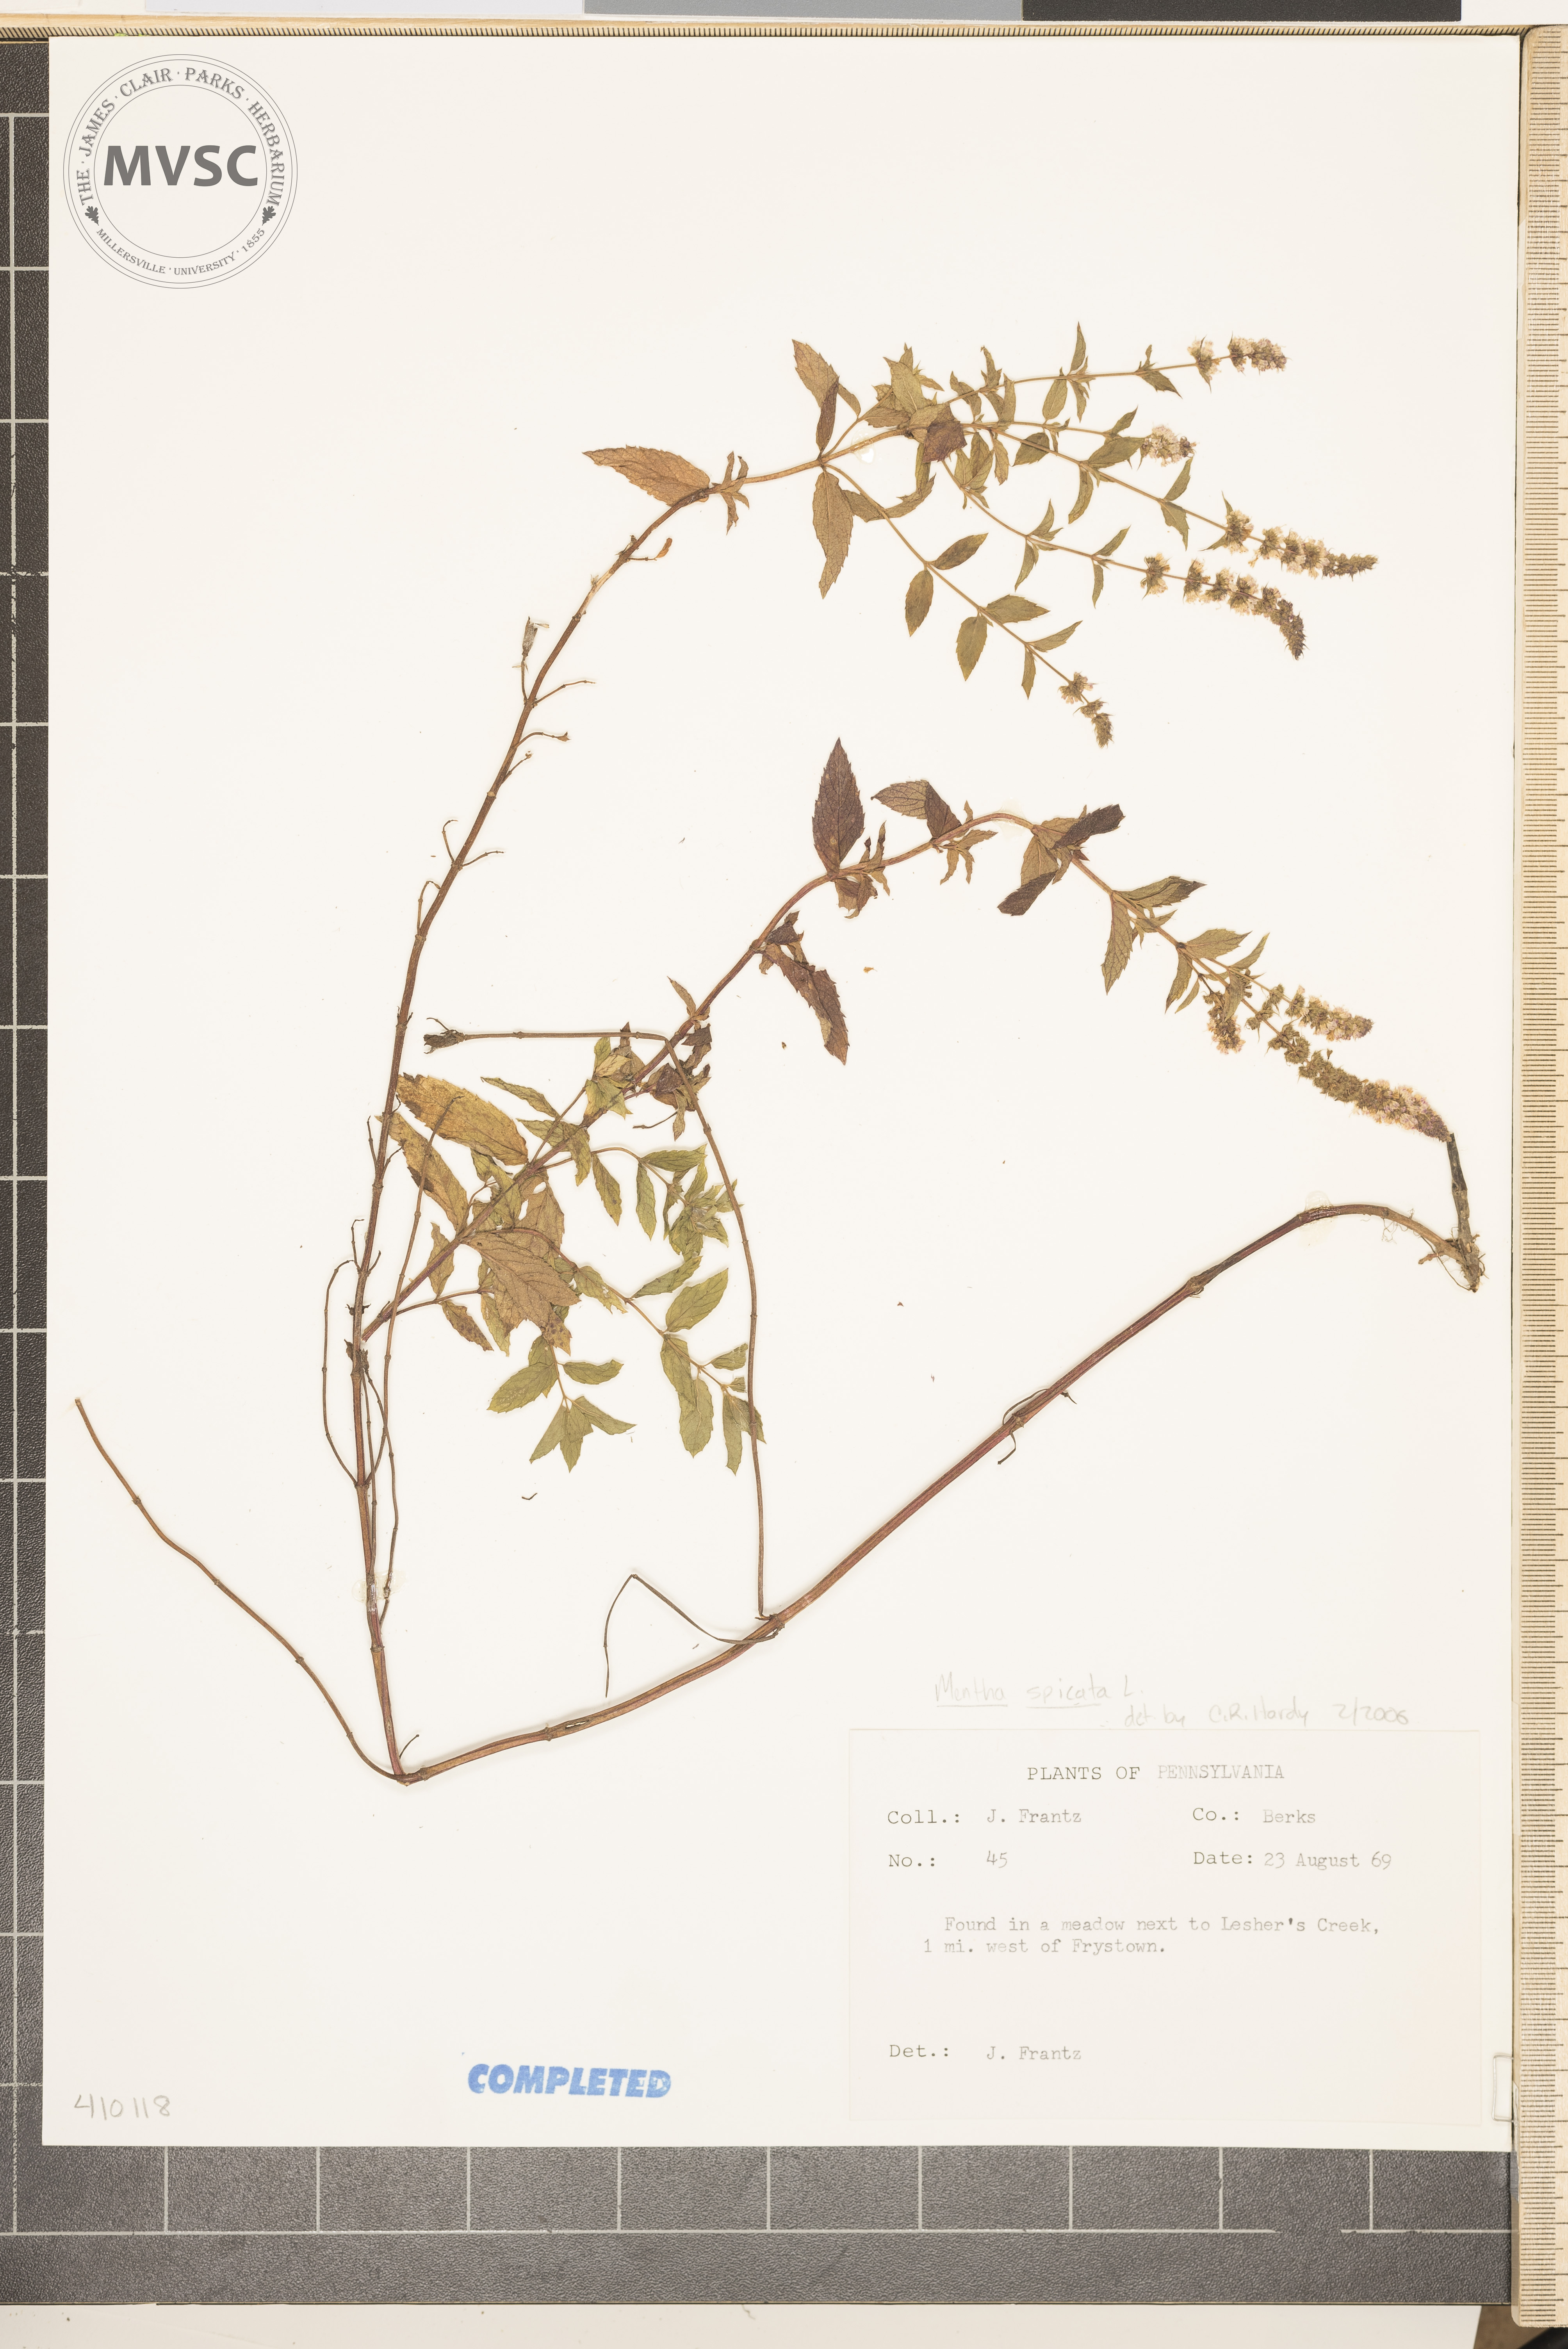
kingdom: Plantae
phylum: Tracheophyta
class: Magnoliopsida
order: Lamiales
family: Lamiaceae
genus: Mentha
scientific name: Mentha spicata
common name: Spearmint
